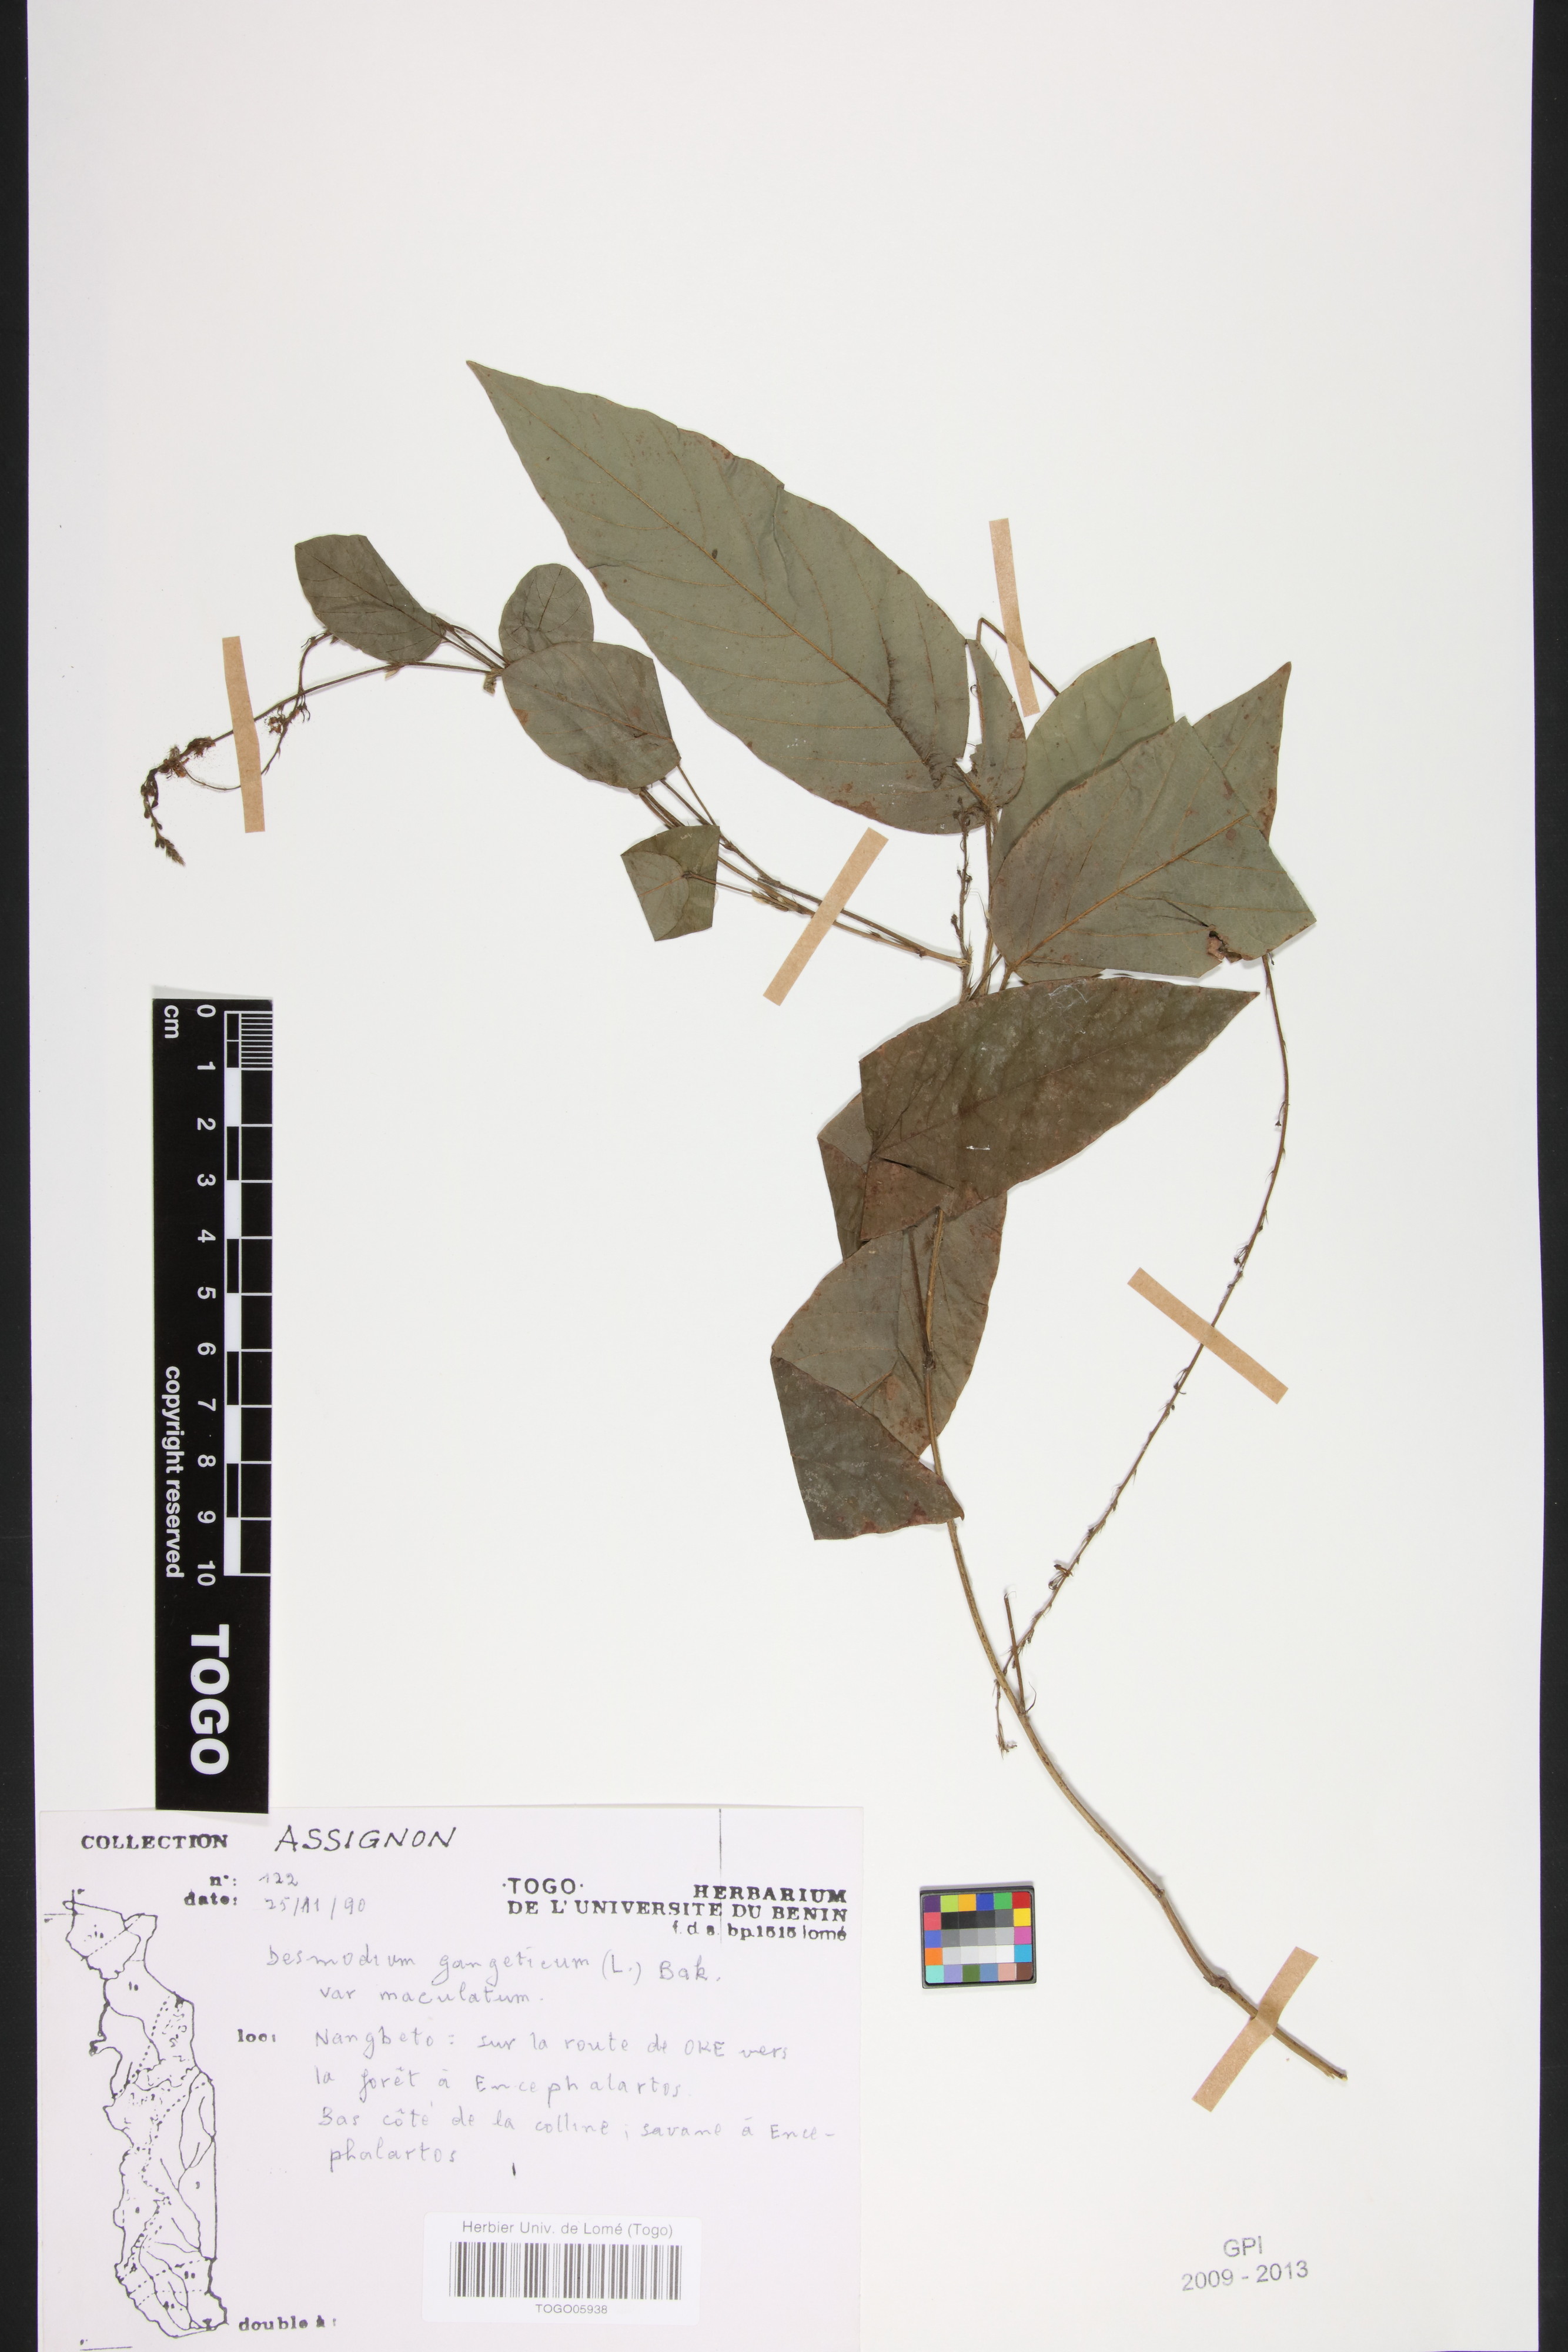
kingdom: Plantae
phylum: Tracheophyta
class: Magnoliopsida
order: Fabales
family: Fabaceae
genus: Pleurolobus
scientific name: Pleurolobus gangeticus
